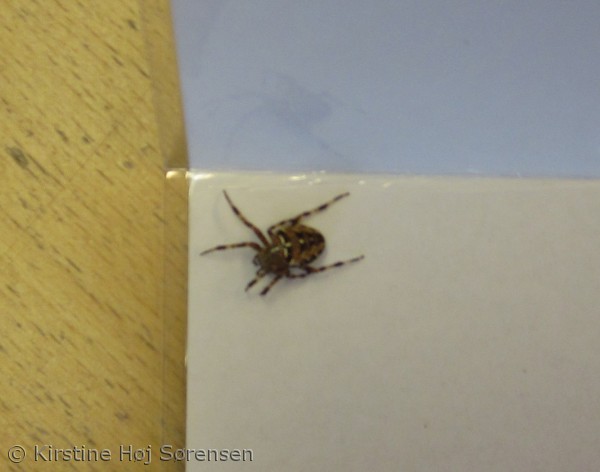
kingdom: Animalia
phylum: Arthropoda
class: Arachnida
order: Araneae
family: Araneidae
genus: Araneus
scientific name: Araneus diadematus
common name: Korsedderkop
